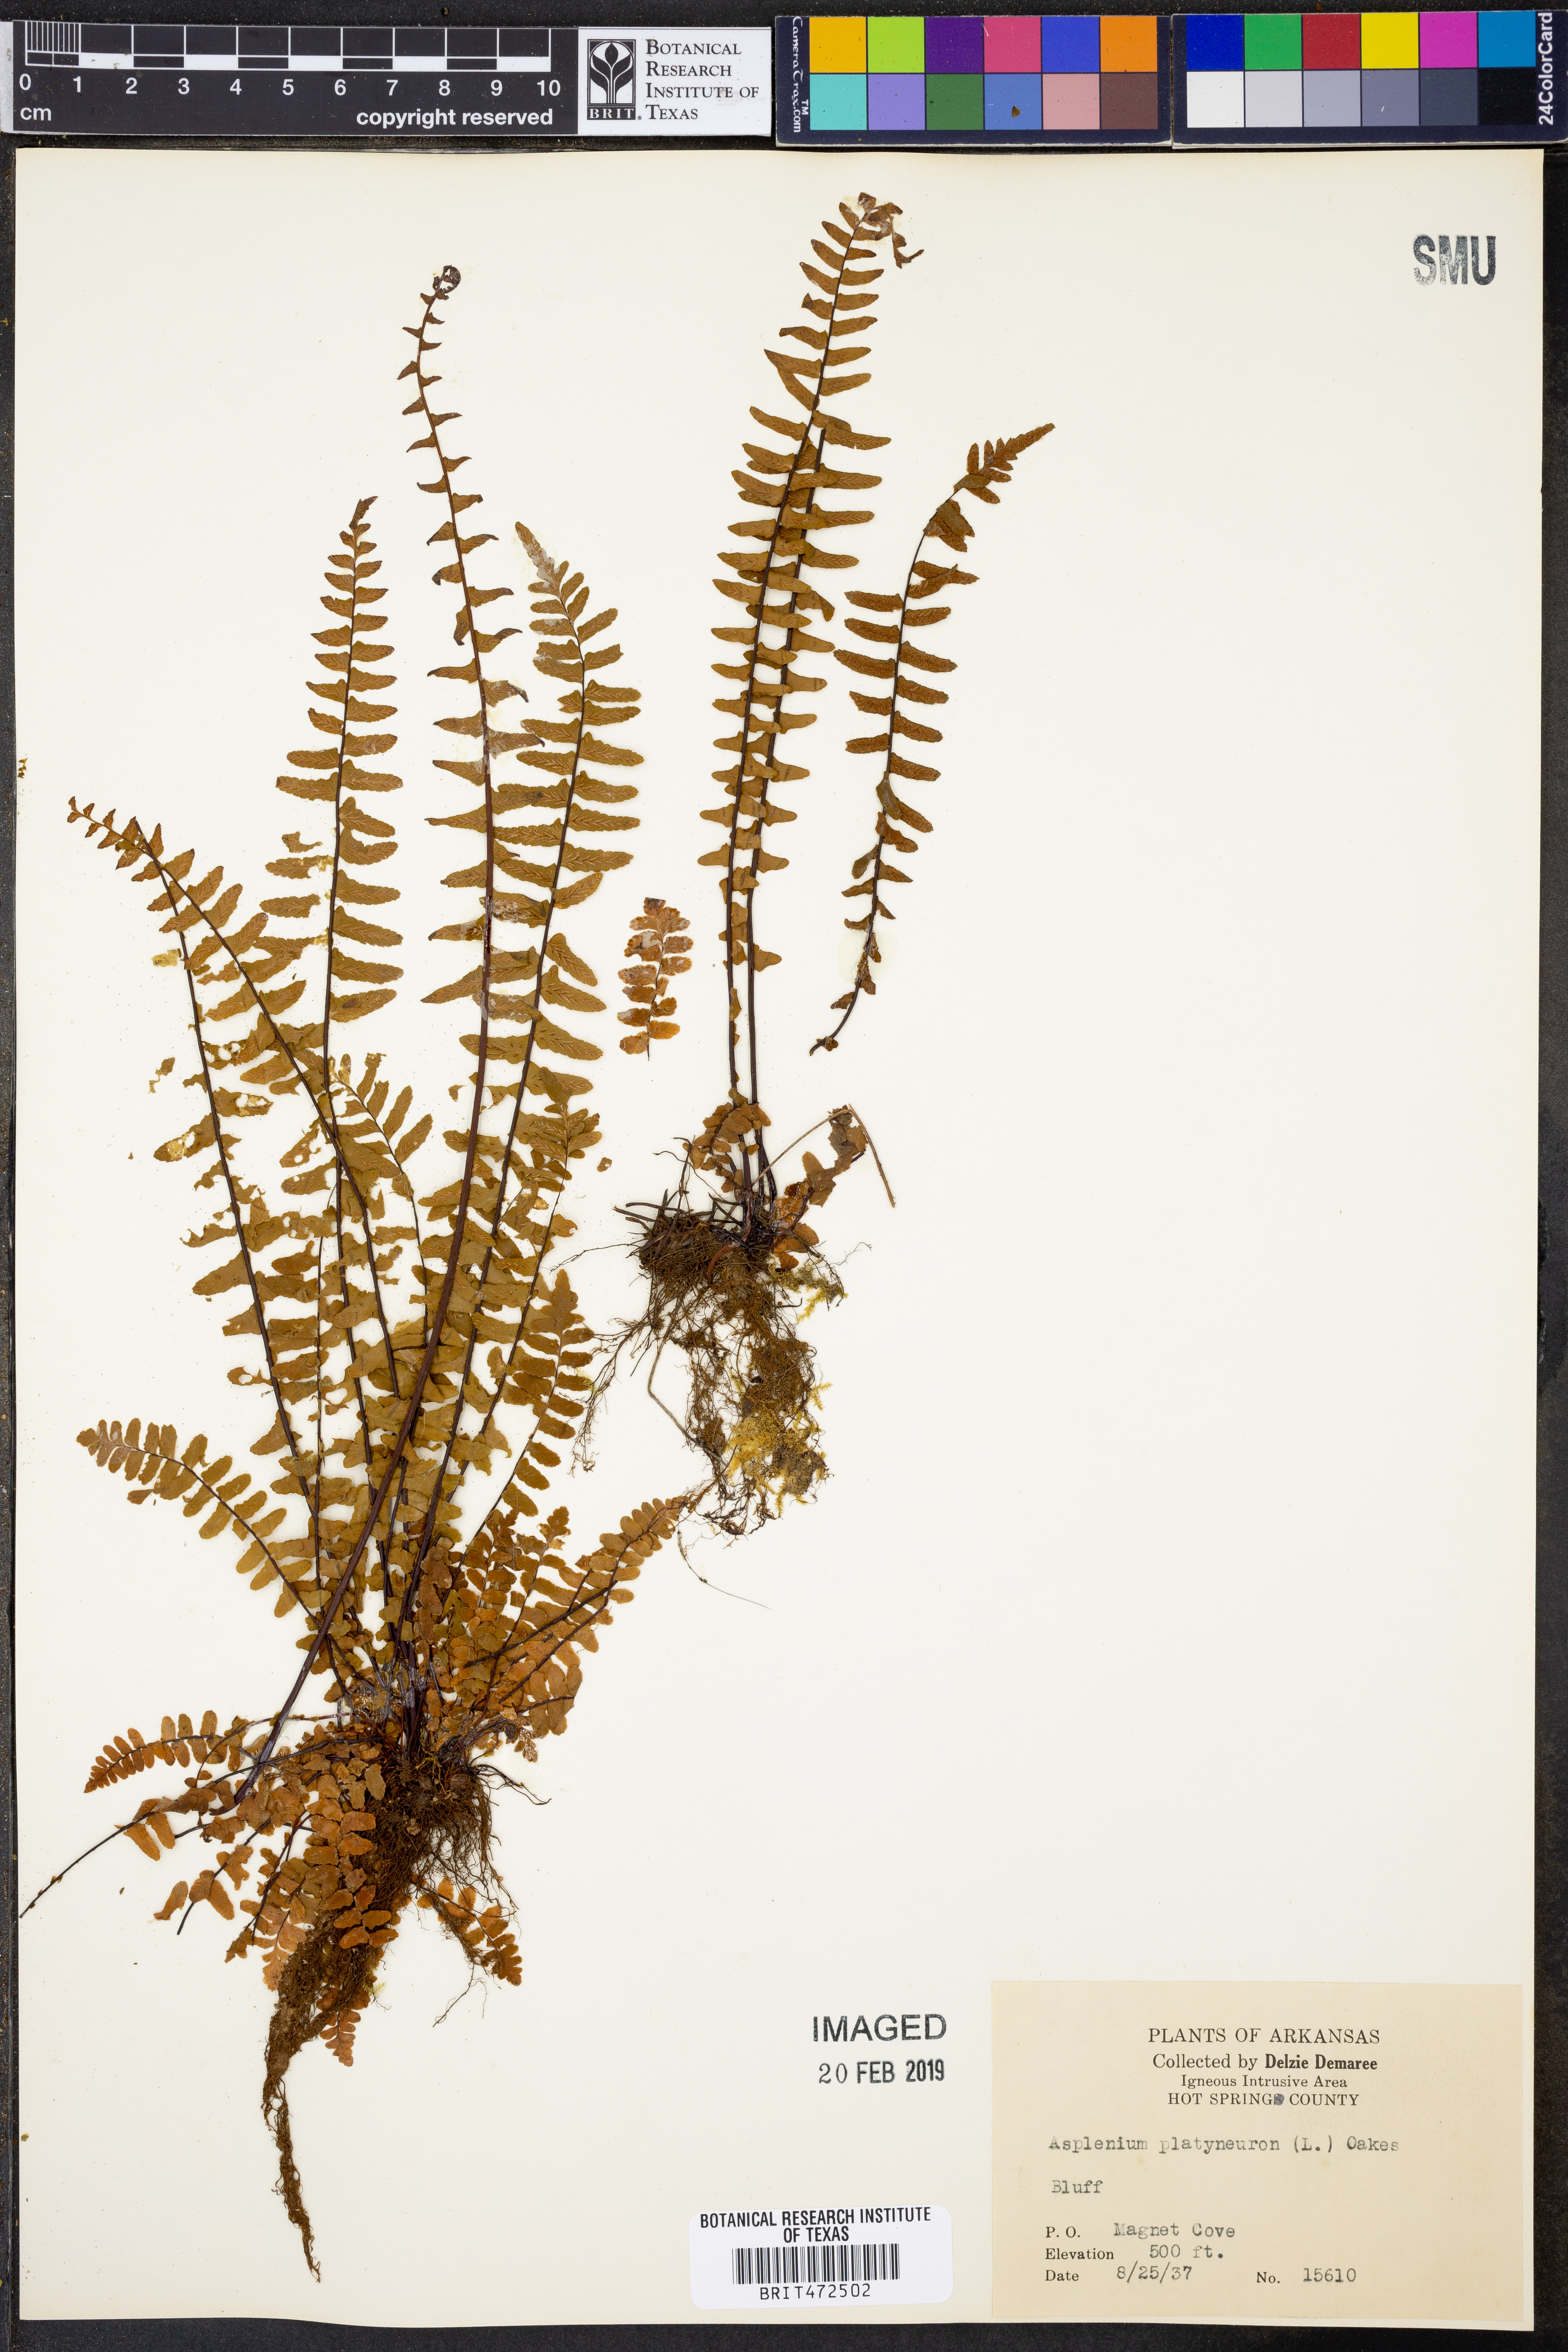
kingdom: Plantae
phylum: Tracheophyta
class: Polypodiopsida
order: Polypodiales
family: Aspleniaceae
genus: Asplenium
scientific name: Asplenium
